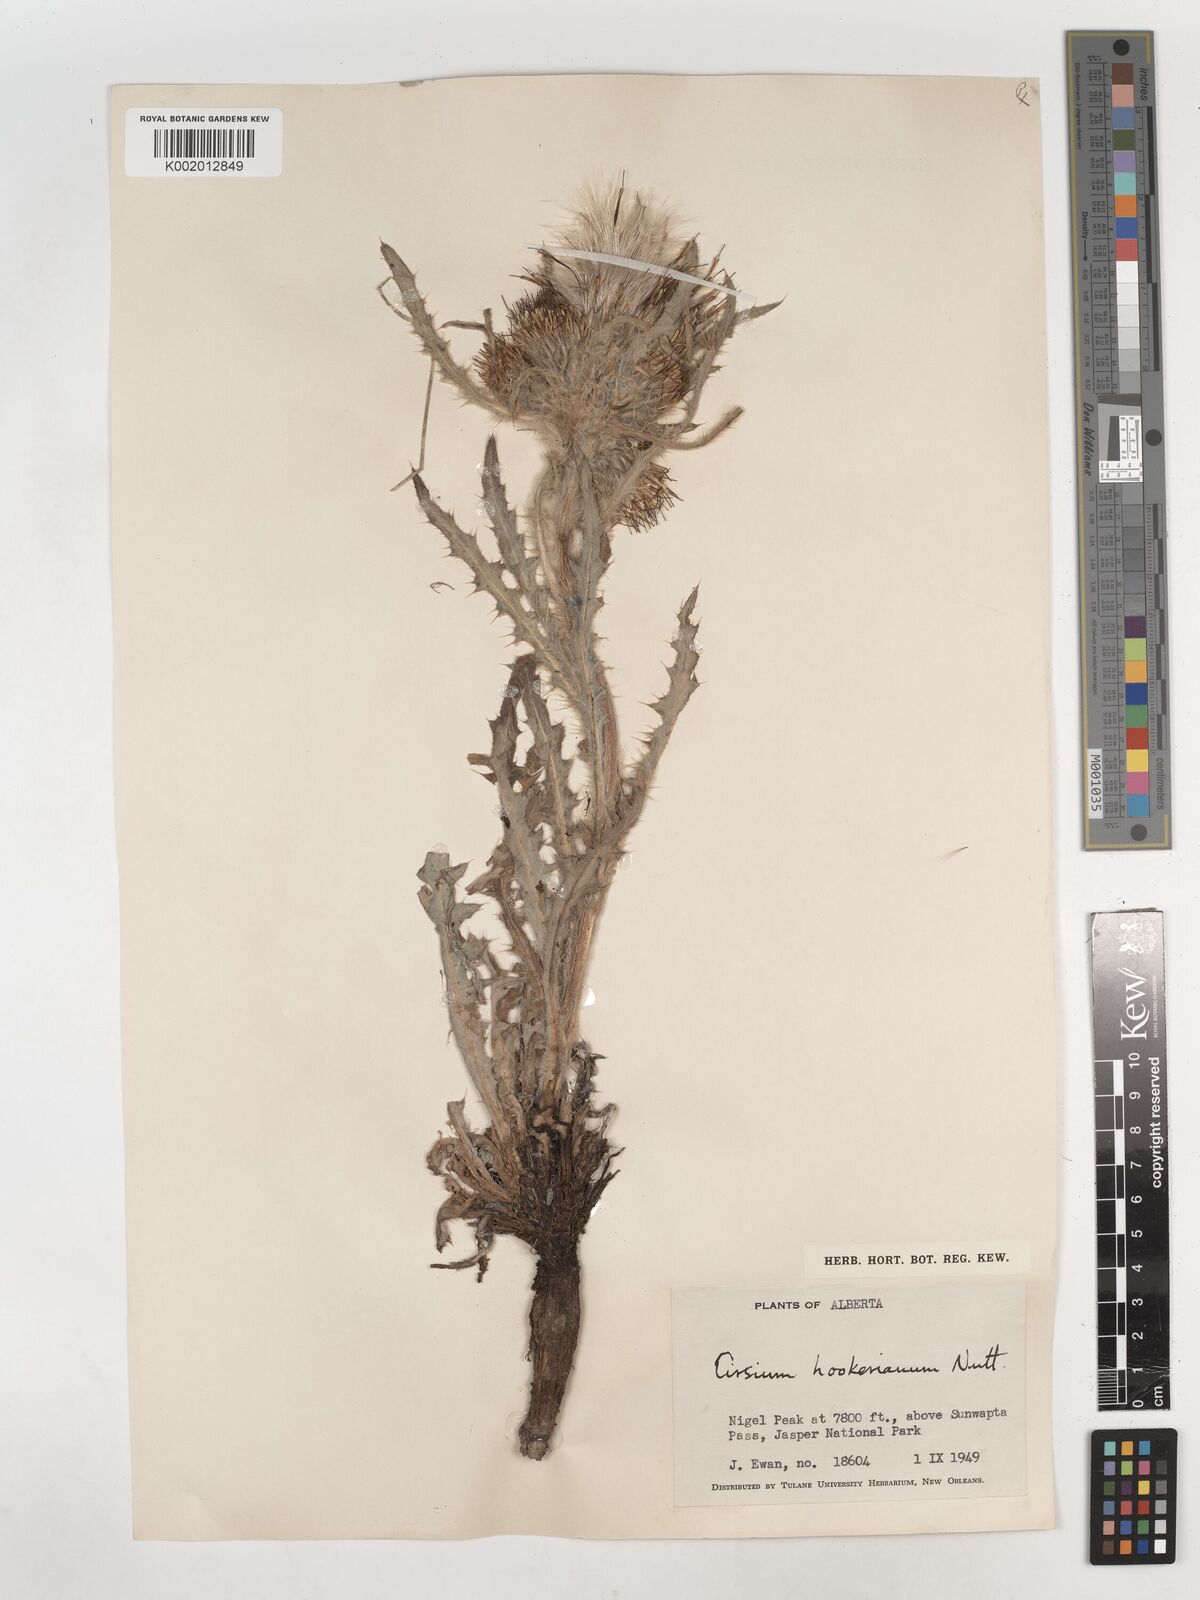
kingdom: Plantae
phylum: Tracheophyta
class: Magnoliopsida
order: Asterales
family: Asteraceae
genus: Cirsium
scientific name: Cirsium hookerianum
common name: Hooker's thistle
